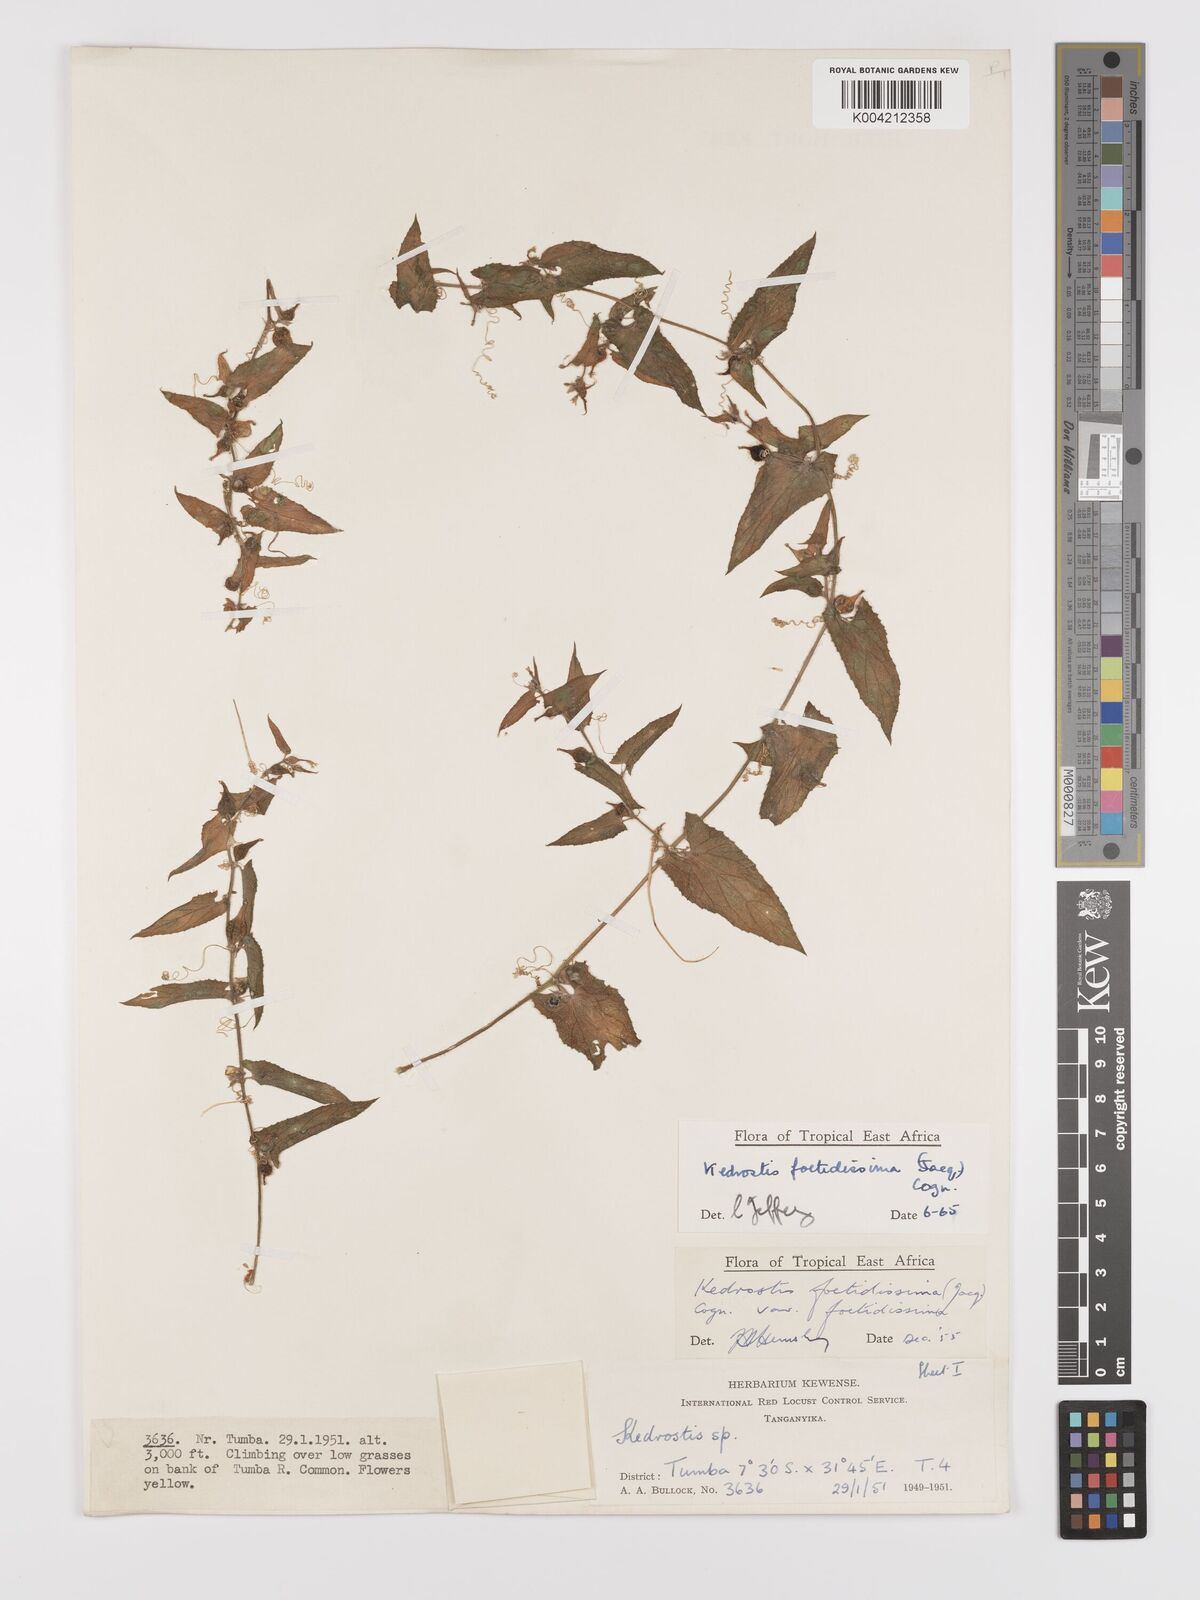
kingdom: Plantae
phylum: Tracheophyta
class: Magnoliopsida
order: Cucurbitales
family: Cucurbitaceae
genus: Kedrostis
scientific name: Kedrostis foetidissima
